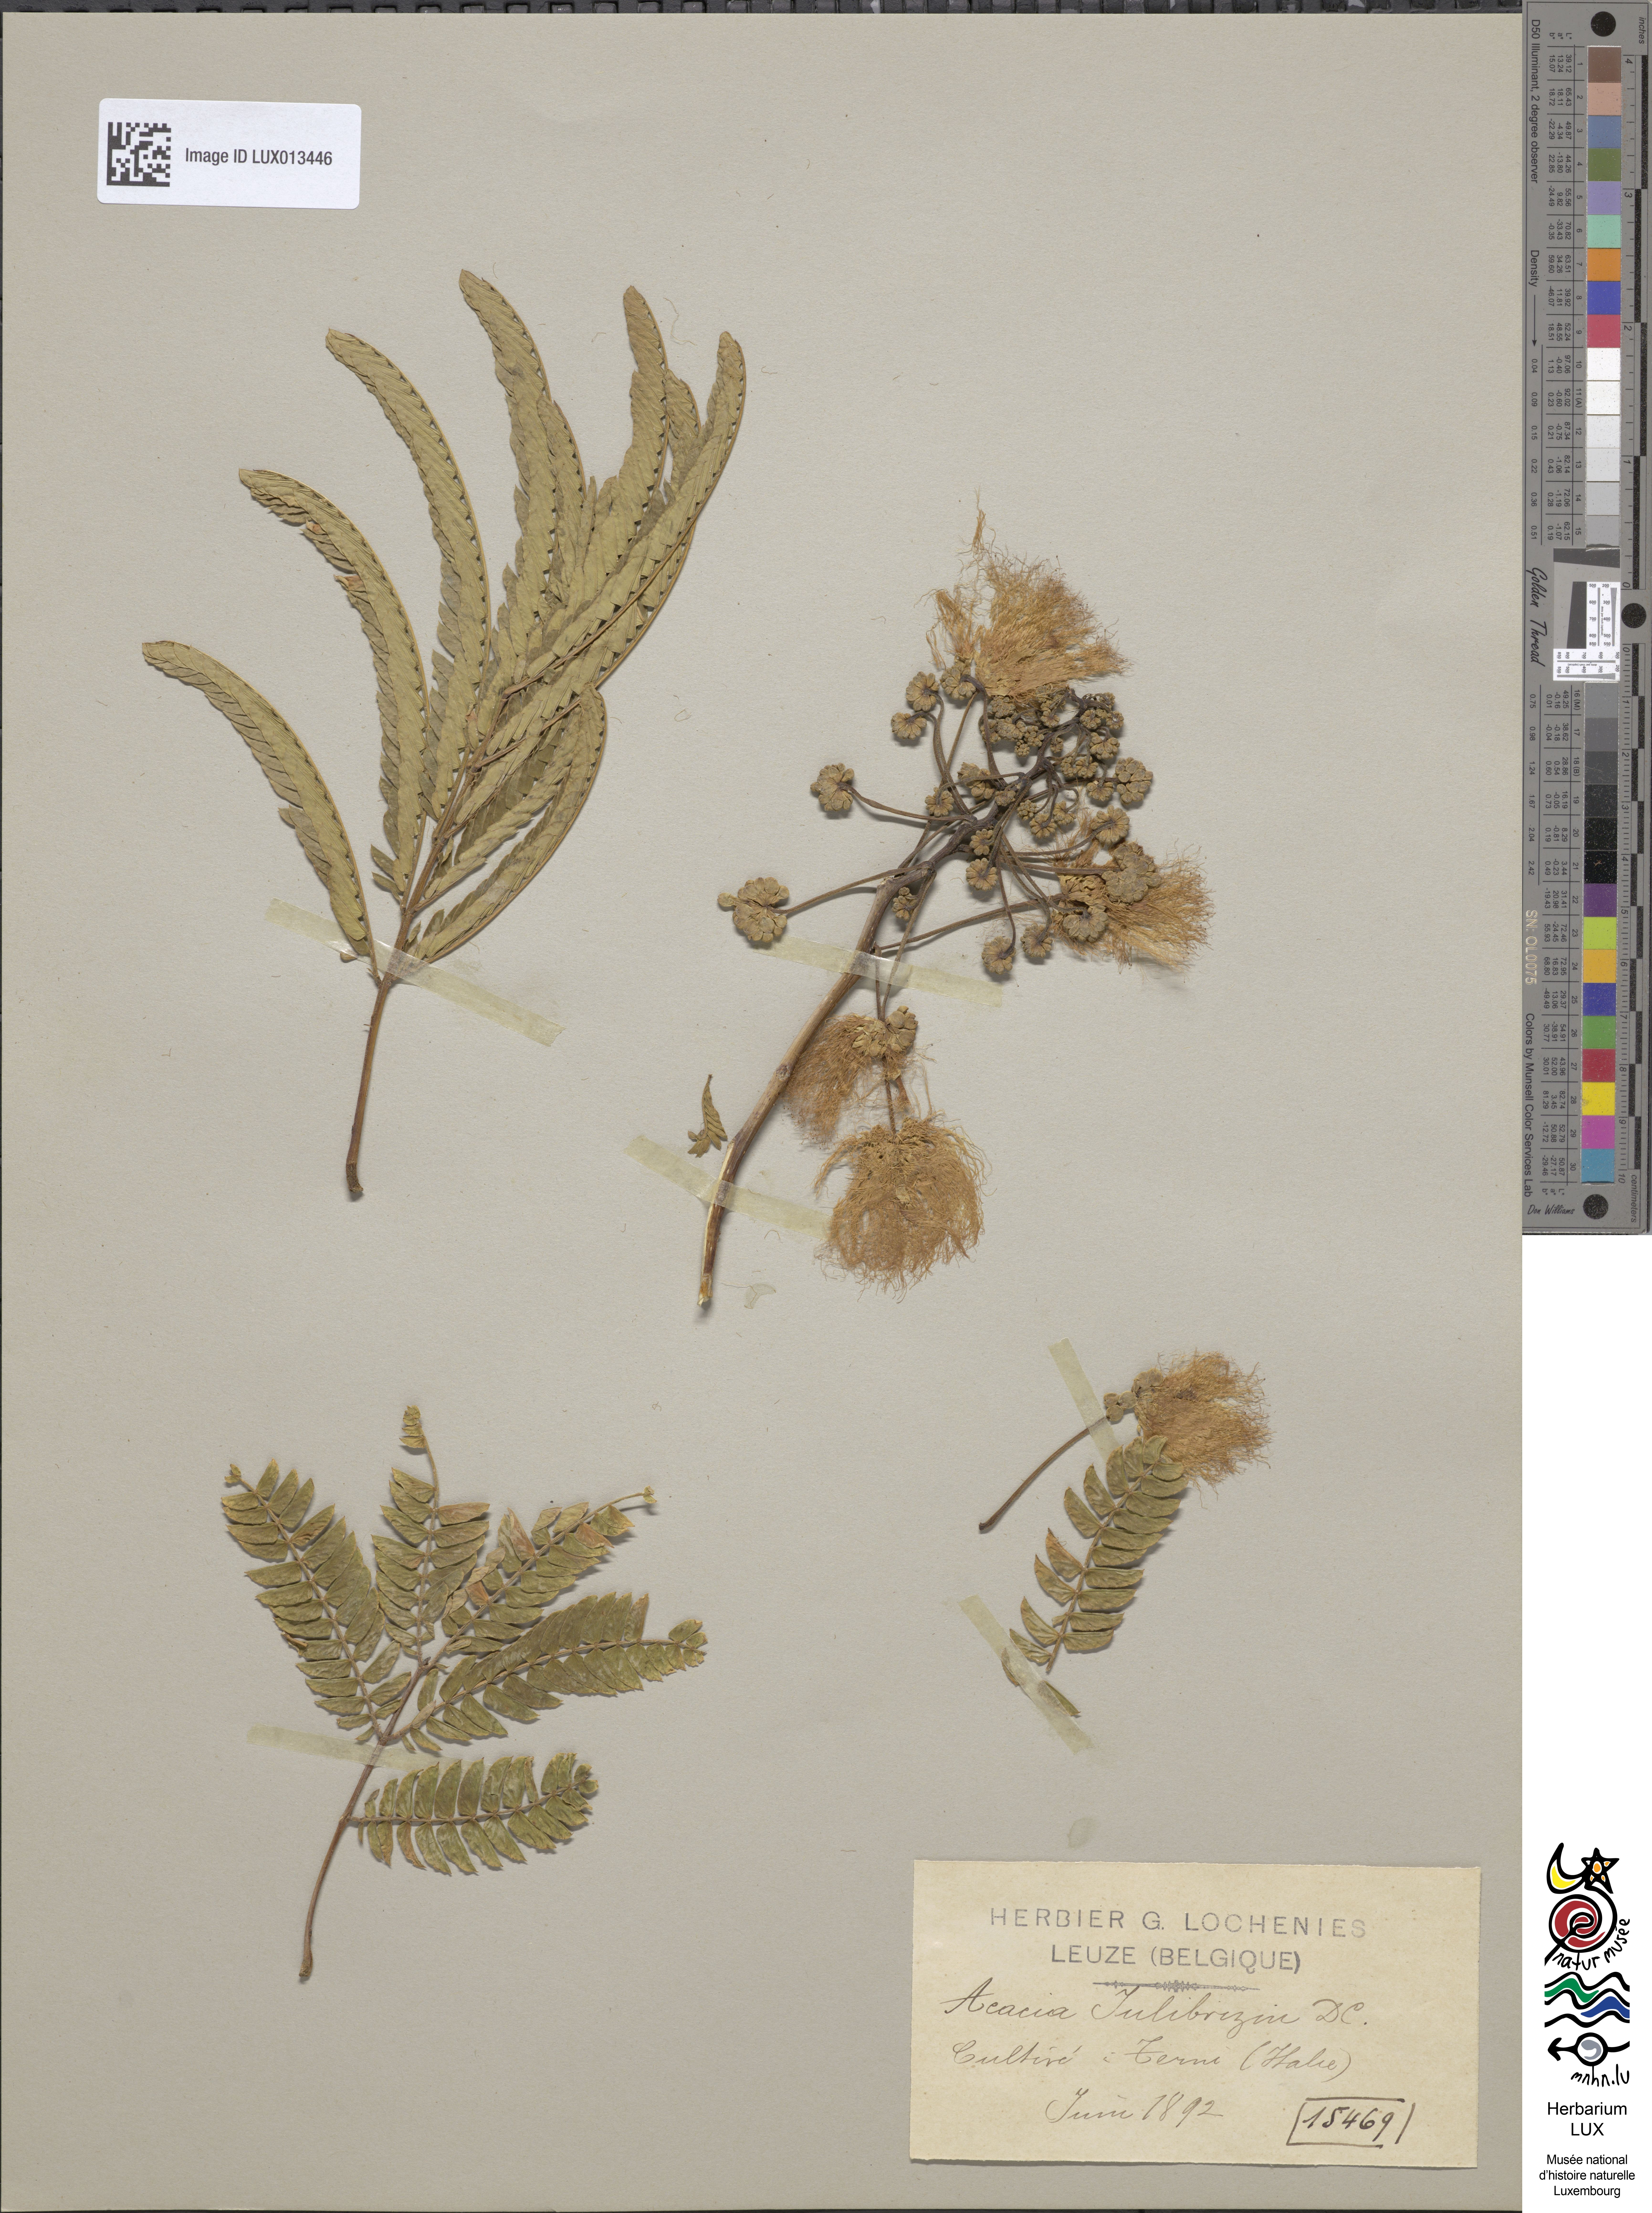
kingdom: Plantae
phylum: Tracheophyta
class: Magnoliopsida
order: Fabales
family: Fabaceae
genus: Albizia
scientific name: Albizia julibrissin
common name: Silktree
